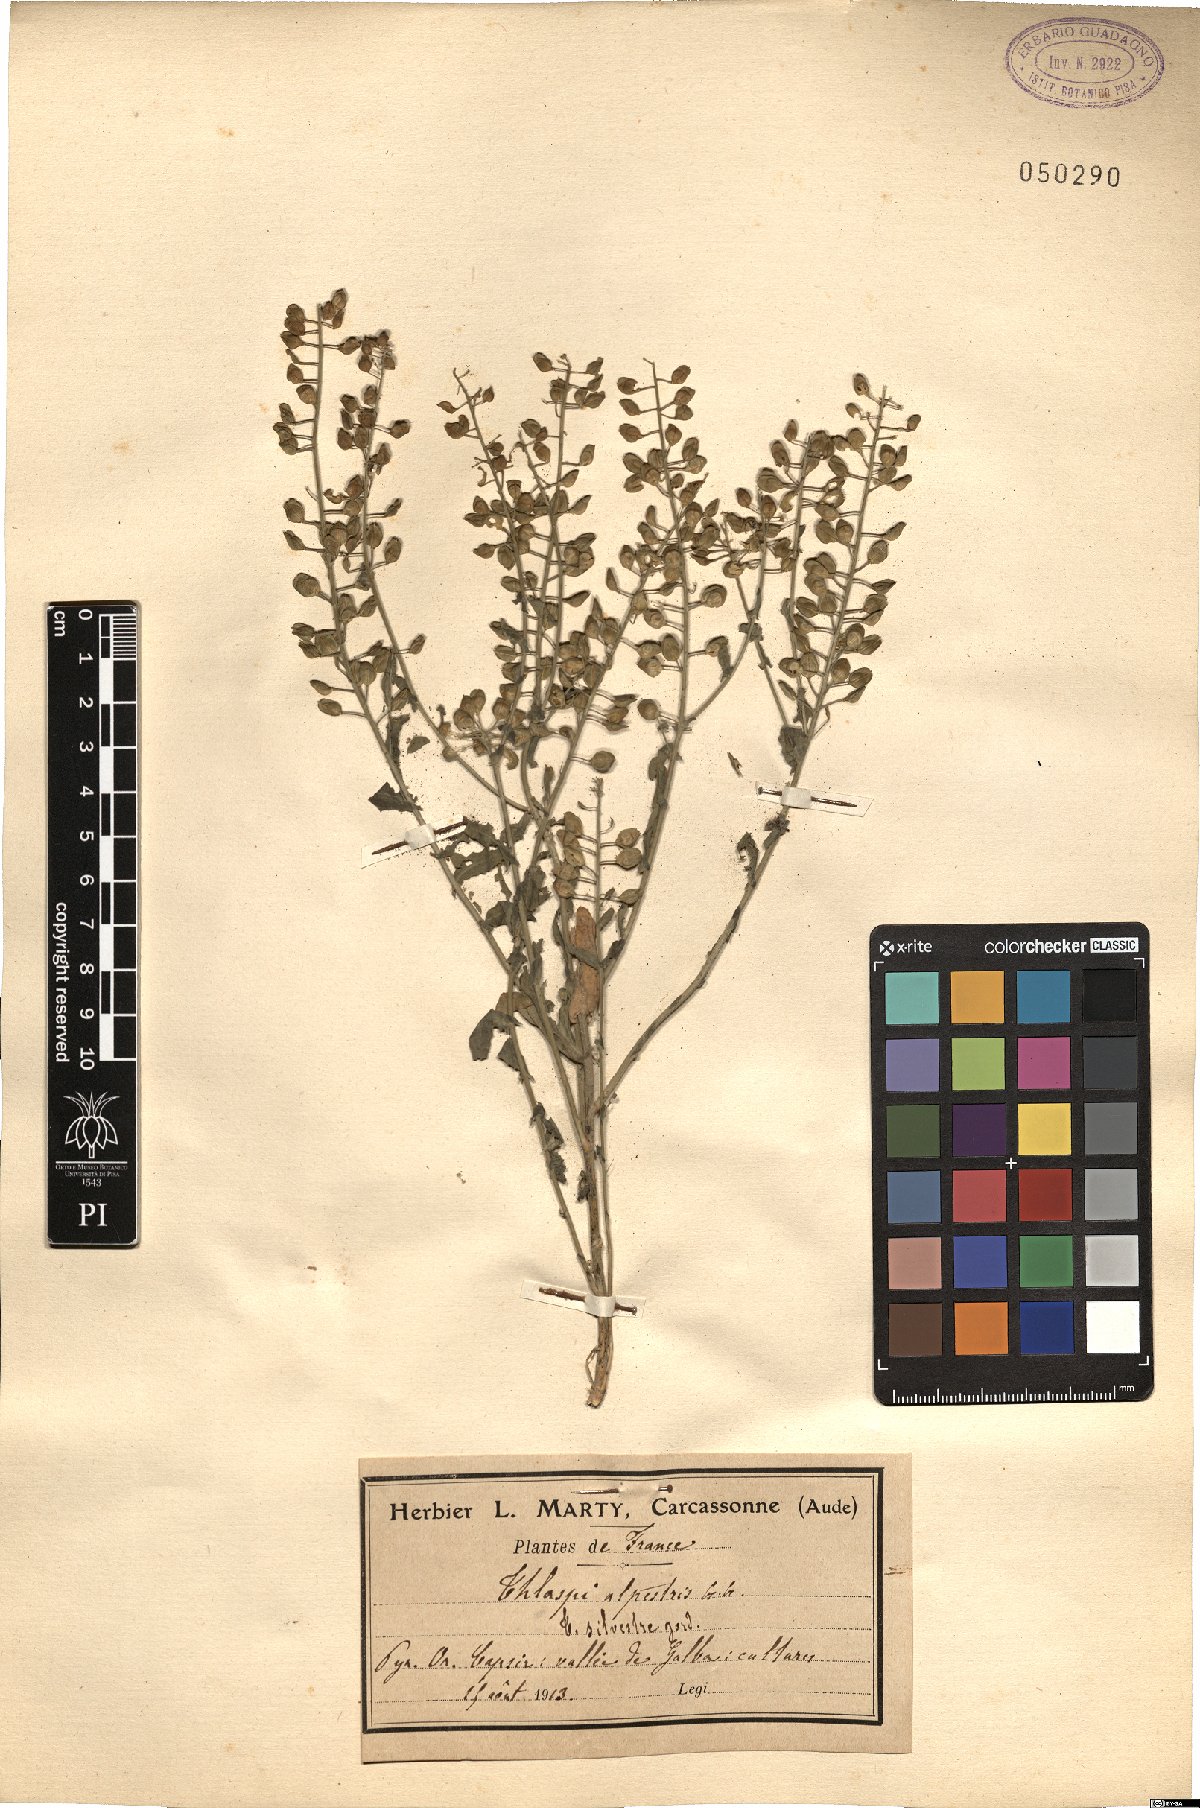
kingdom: Plantae
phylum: Tracheophyta
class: Magnoliopsida
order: Brassicales
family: Brassicaceae
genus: Noccaea
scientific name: Noccaea caerulescens
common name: Alpine pennycress
